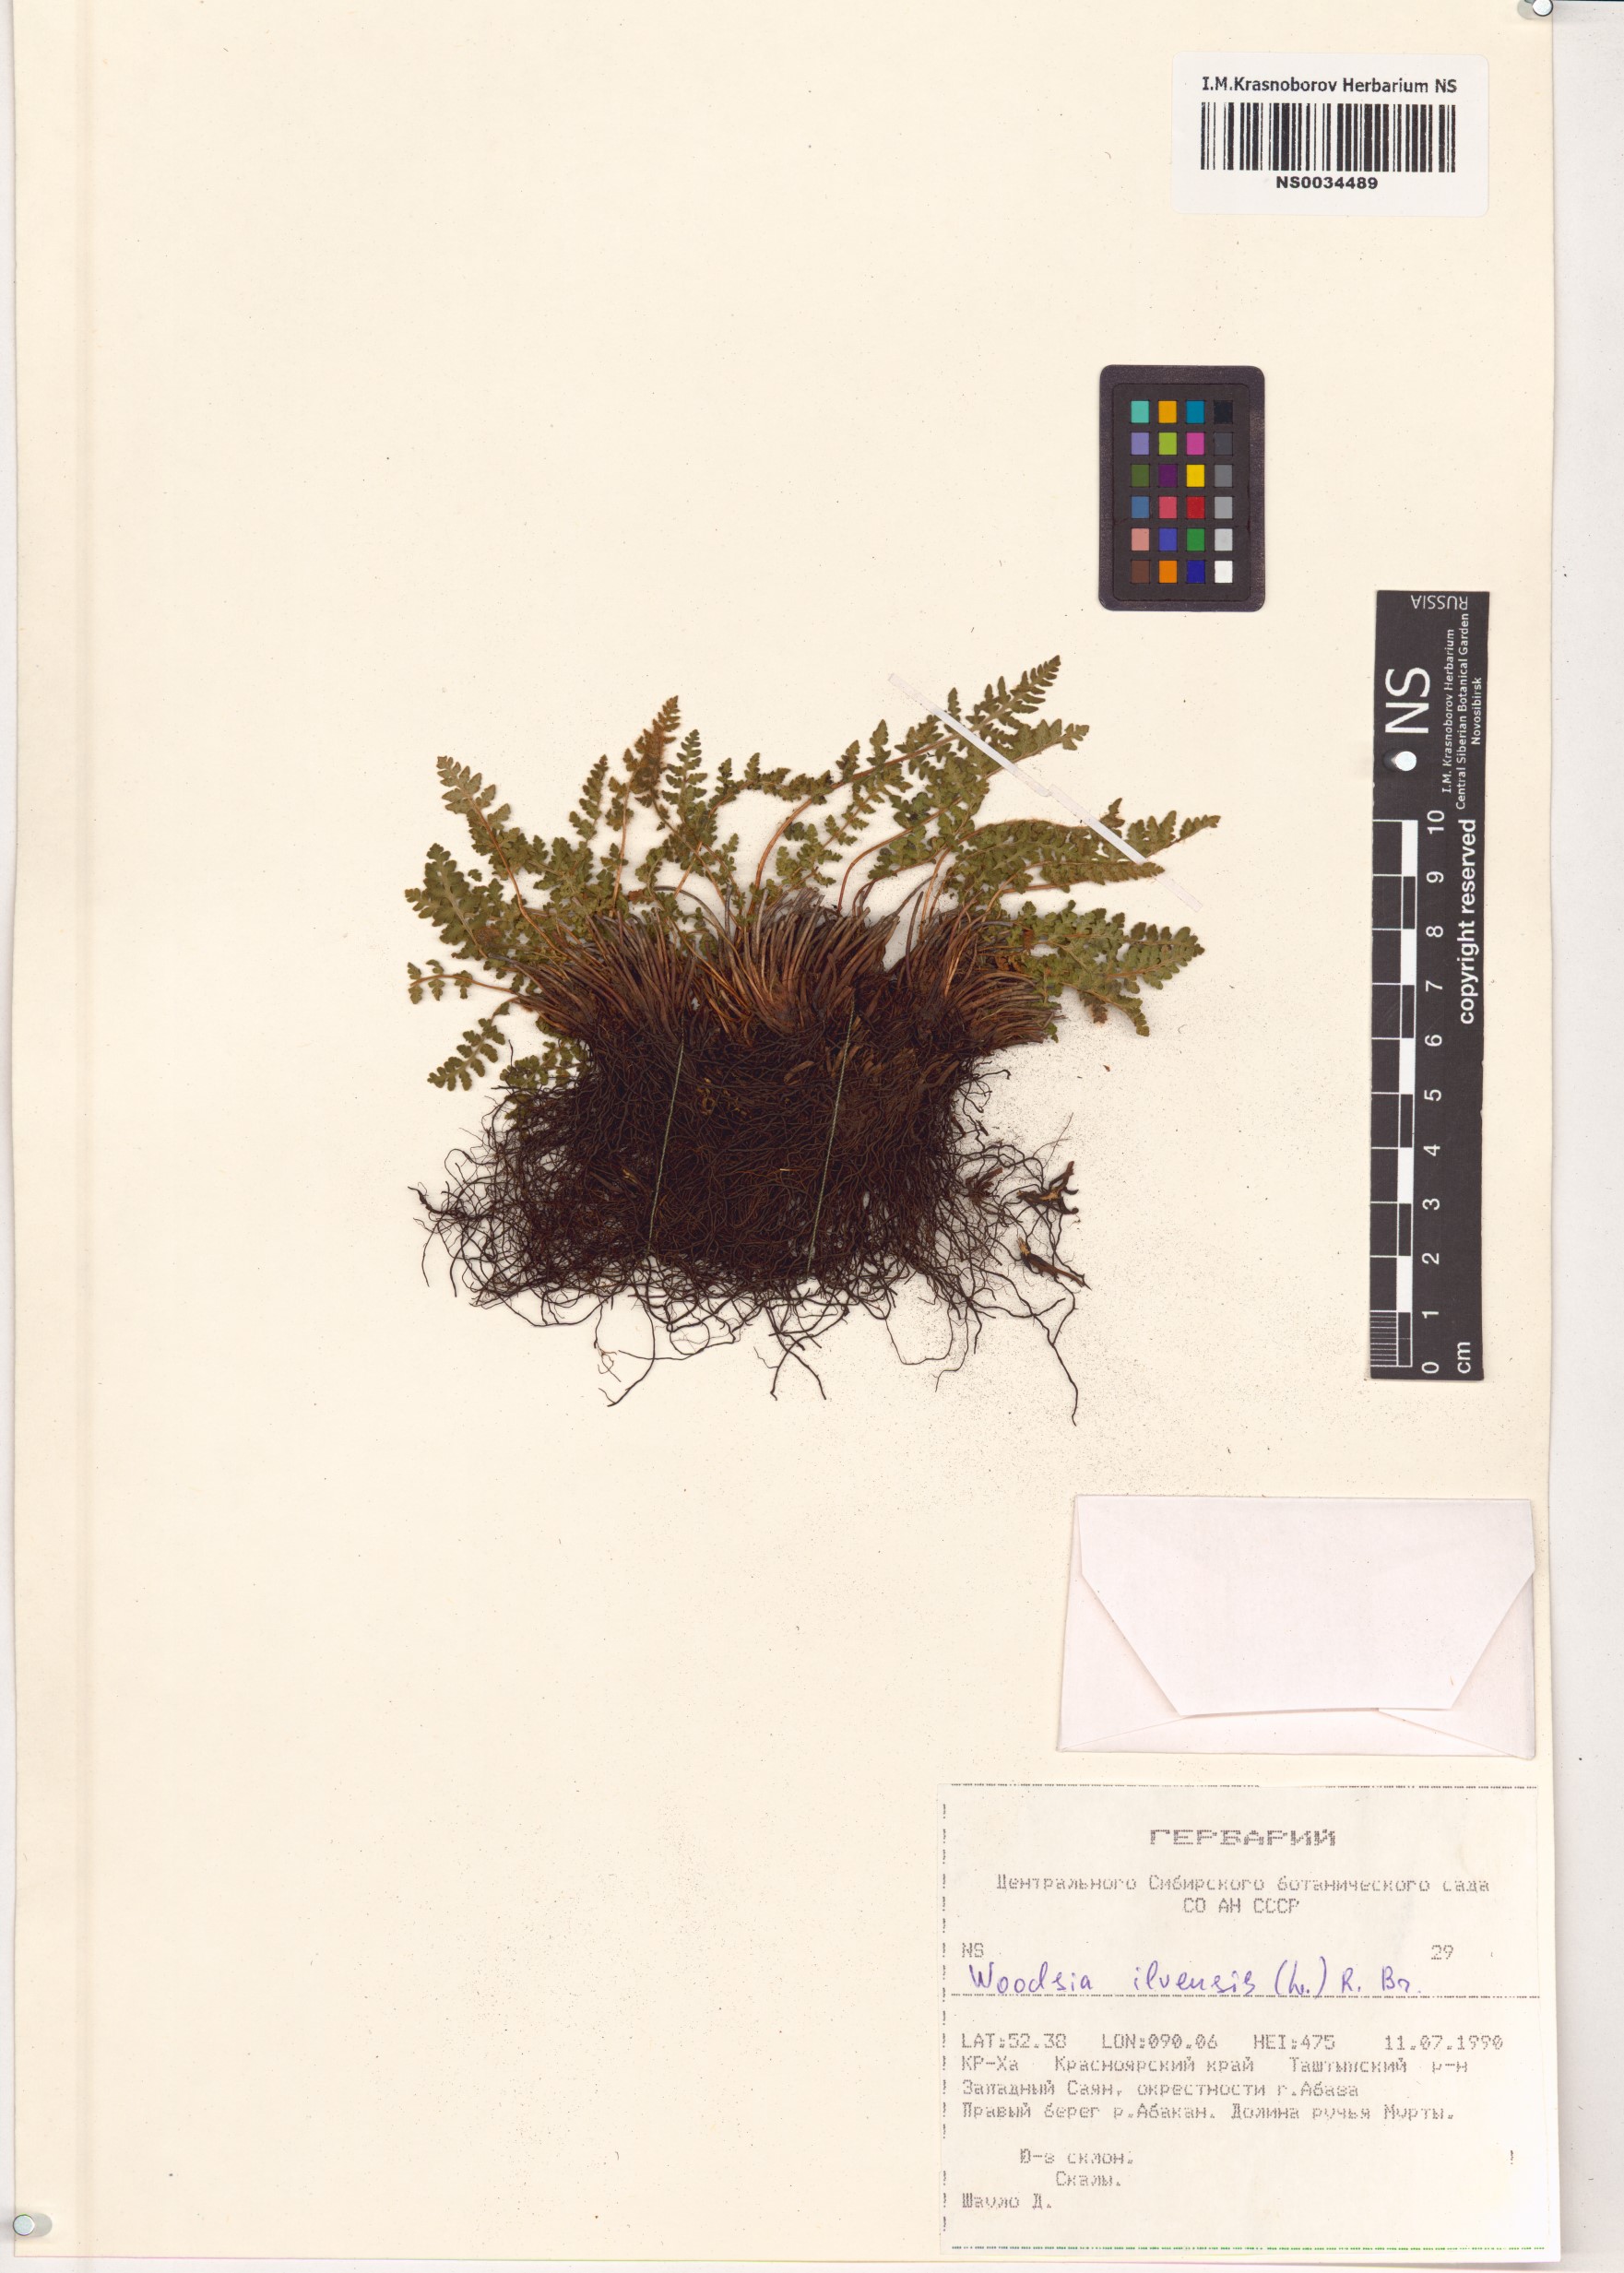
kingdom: Plantae
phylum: Tracheophyta
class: Polypodiopsida
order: Polypodiales
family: Woodsiaceae
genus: Woodsia
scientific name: Woodsia ilvensis
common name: Fragrant woodsia
